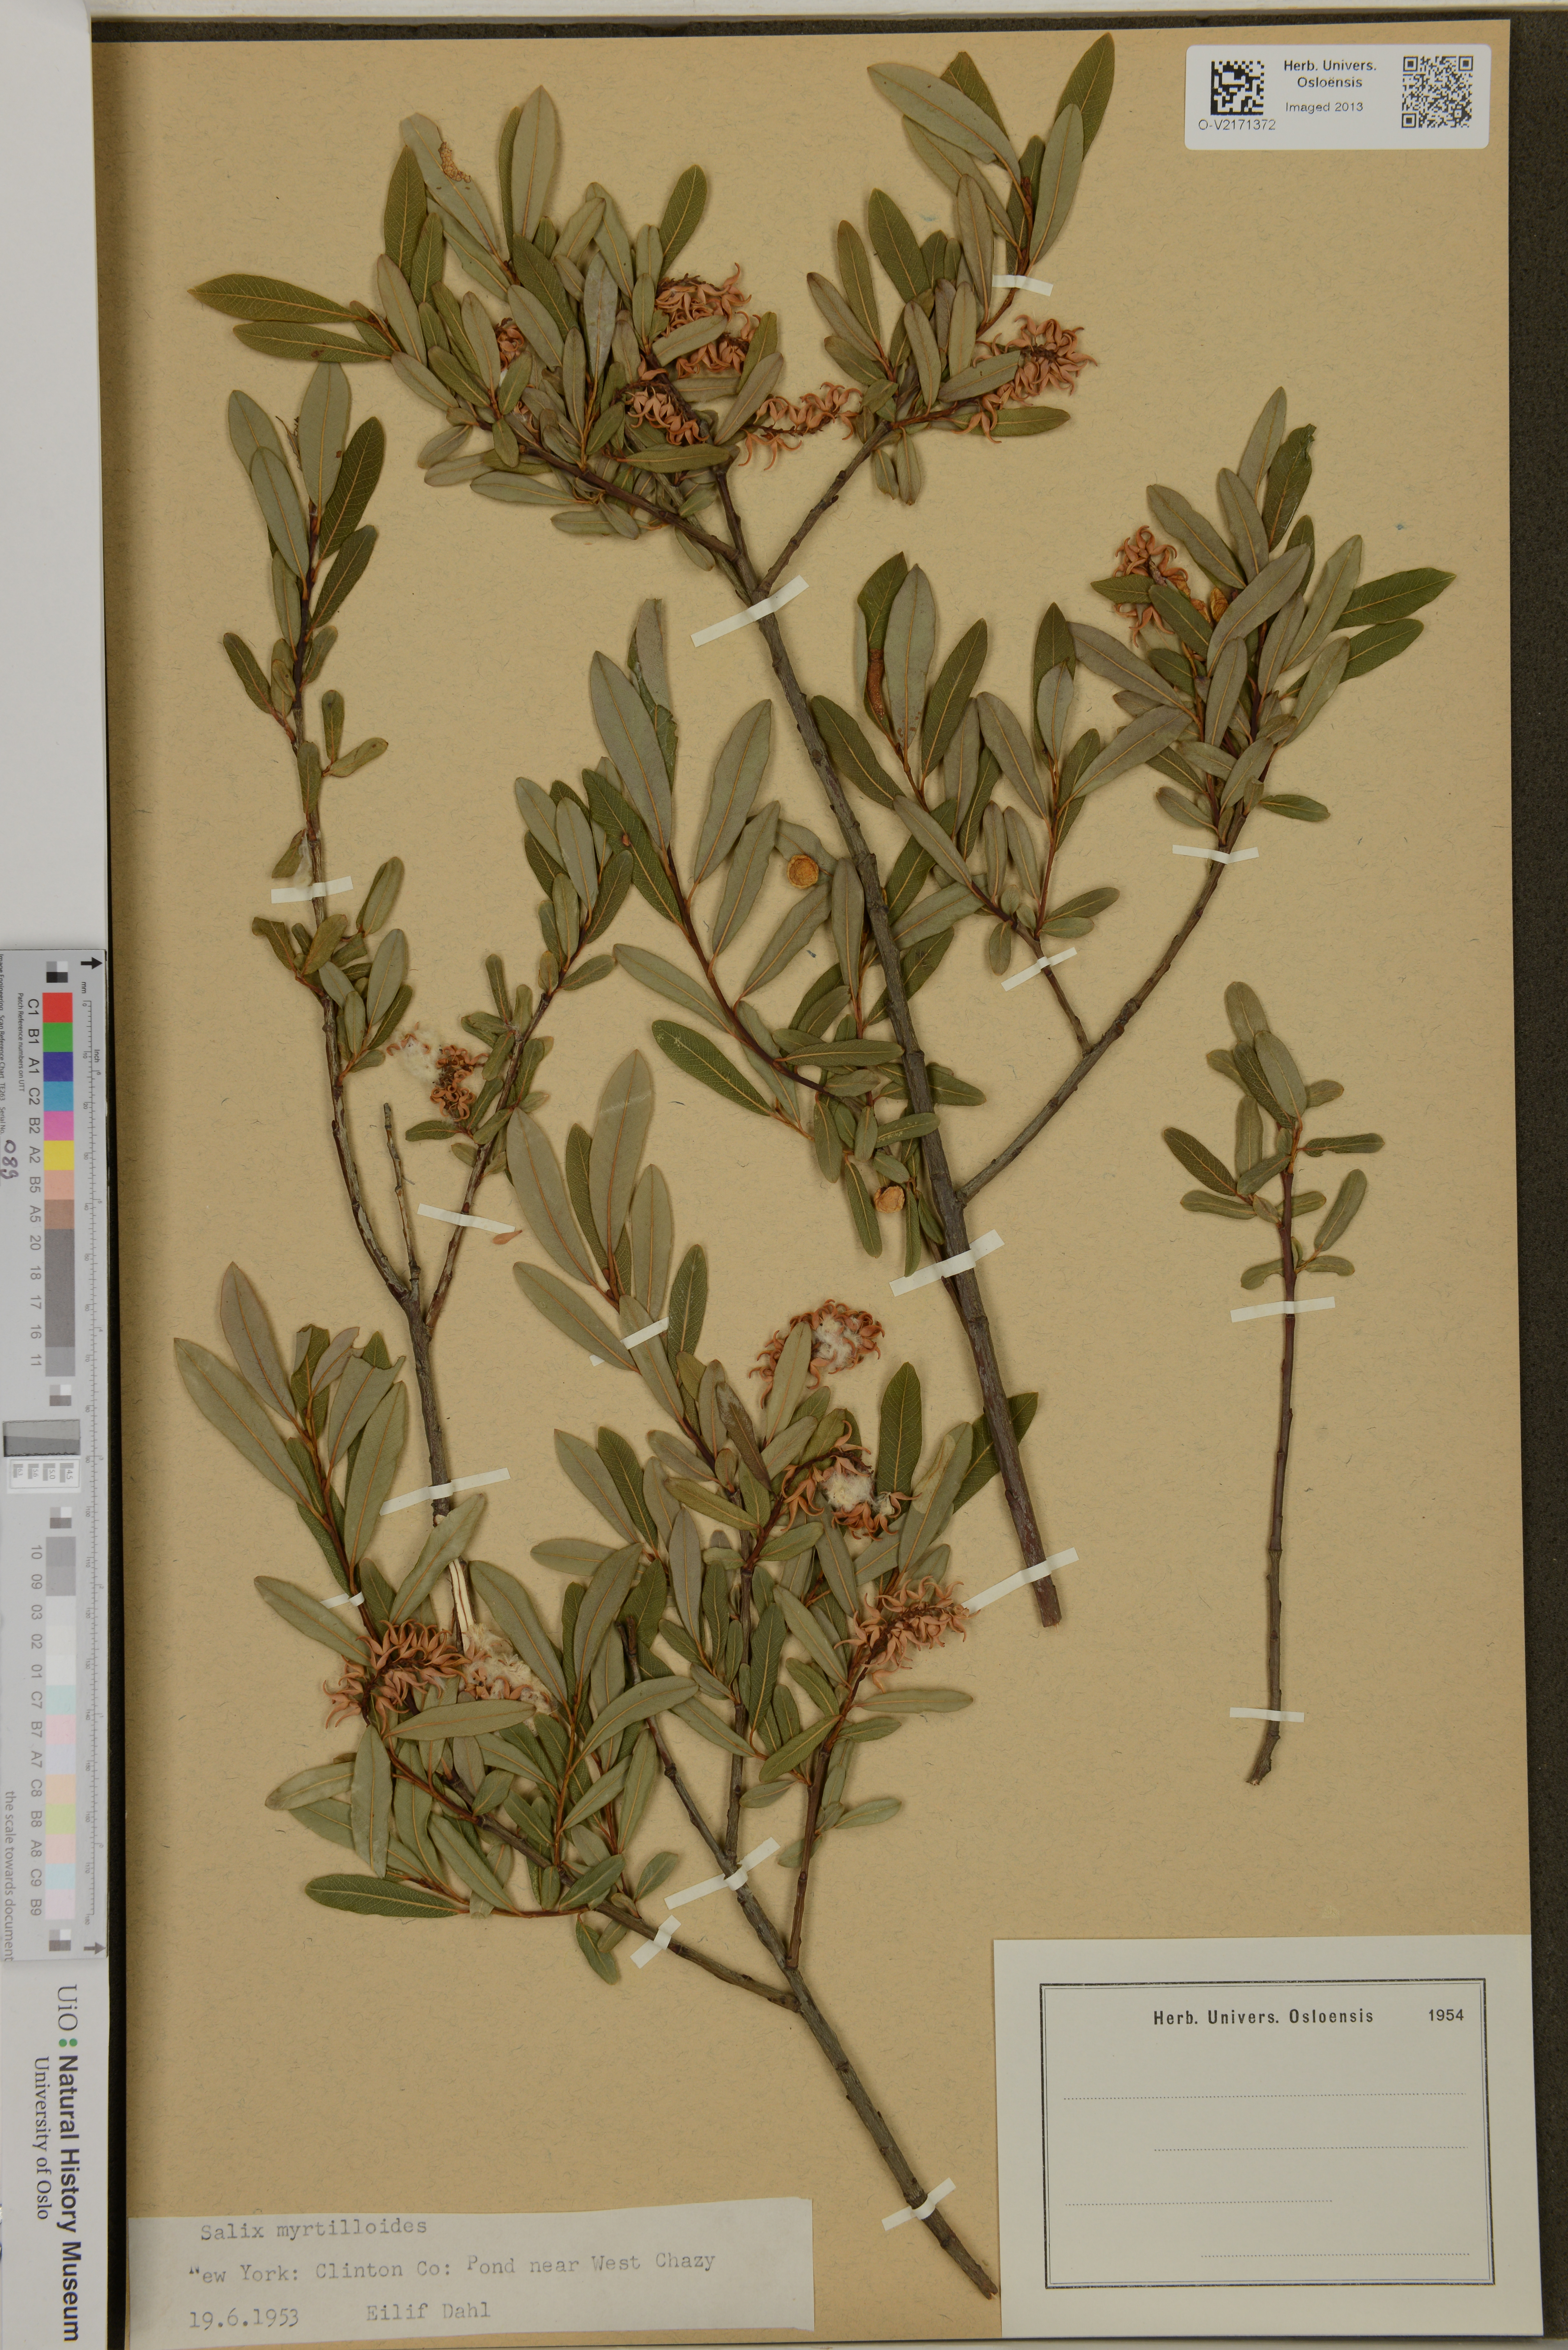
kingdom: Plantae
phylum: Tracheophyta
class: Magnoliopsida
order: Malpighiales
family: Salicaceae
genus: Salix
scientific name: Salix myrtillioides
